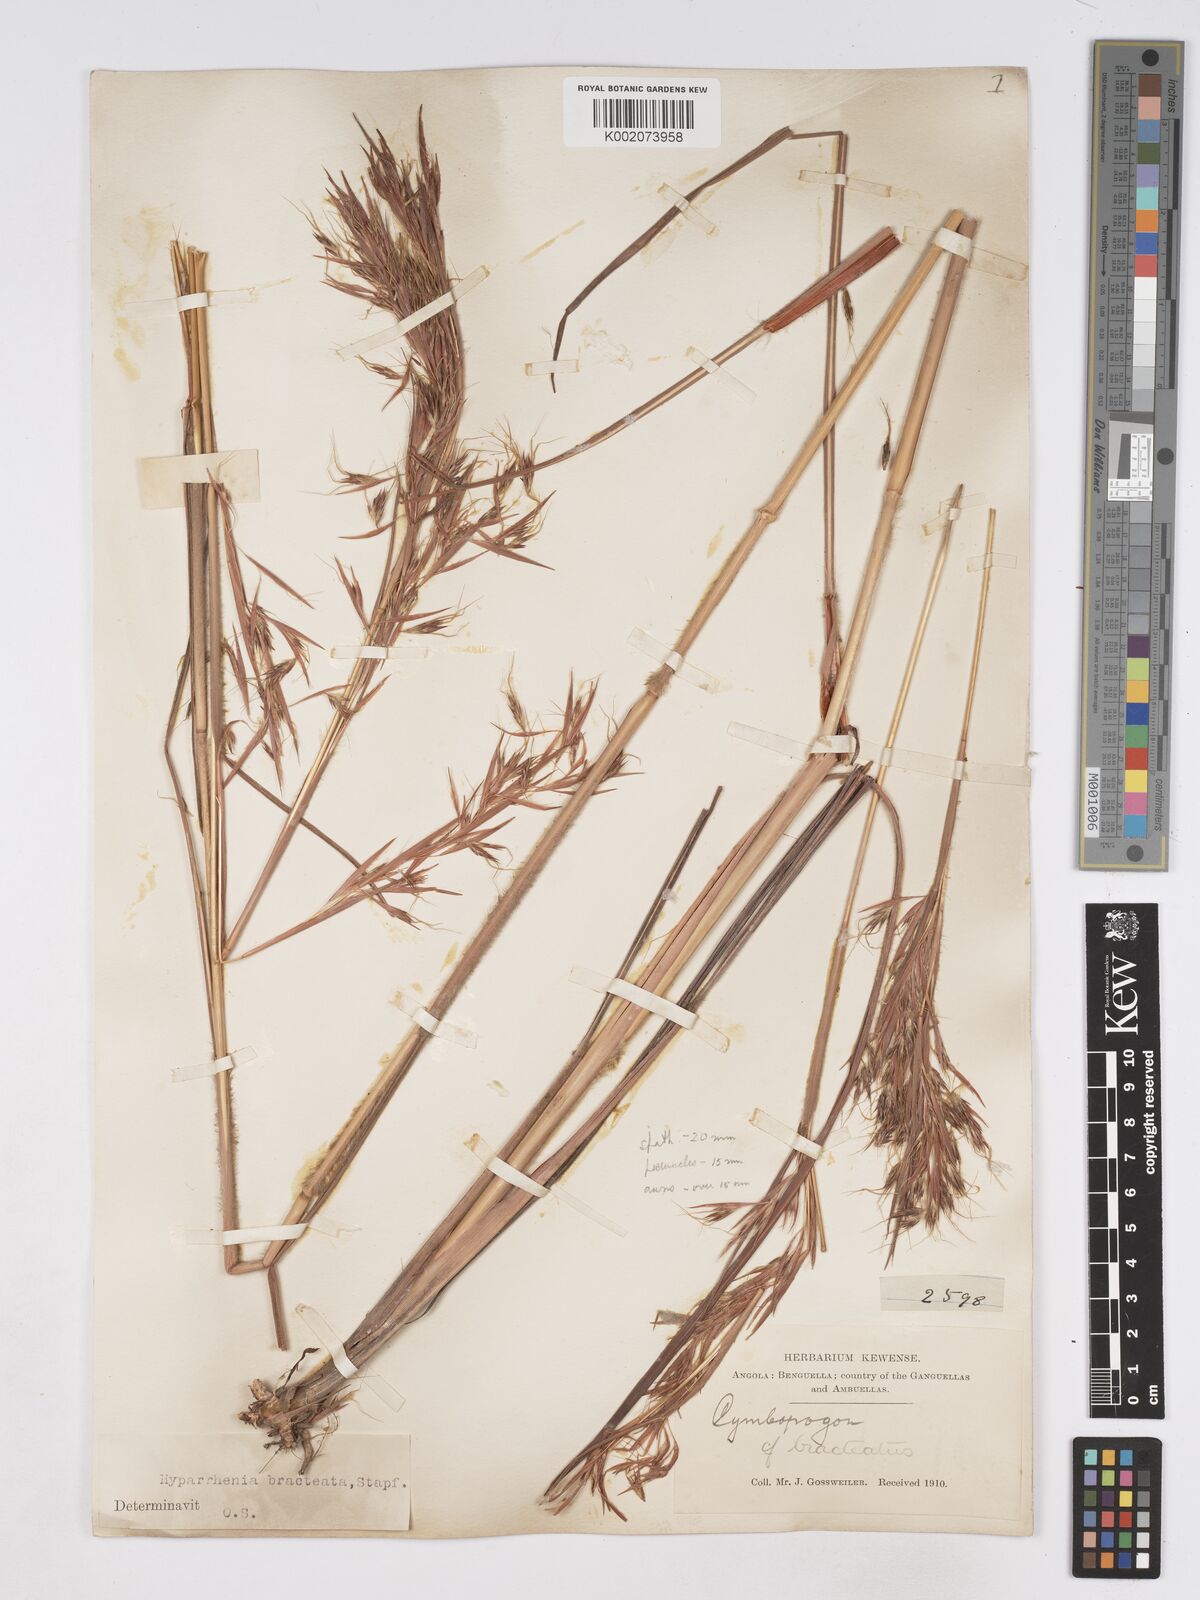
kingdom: Plantae
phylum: Tracheophyta
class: Liliopsida
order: Poales
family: Poaceae
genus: Hyparrhenia
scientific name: Hyparrhenia bracteata
